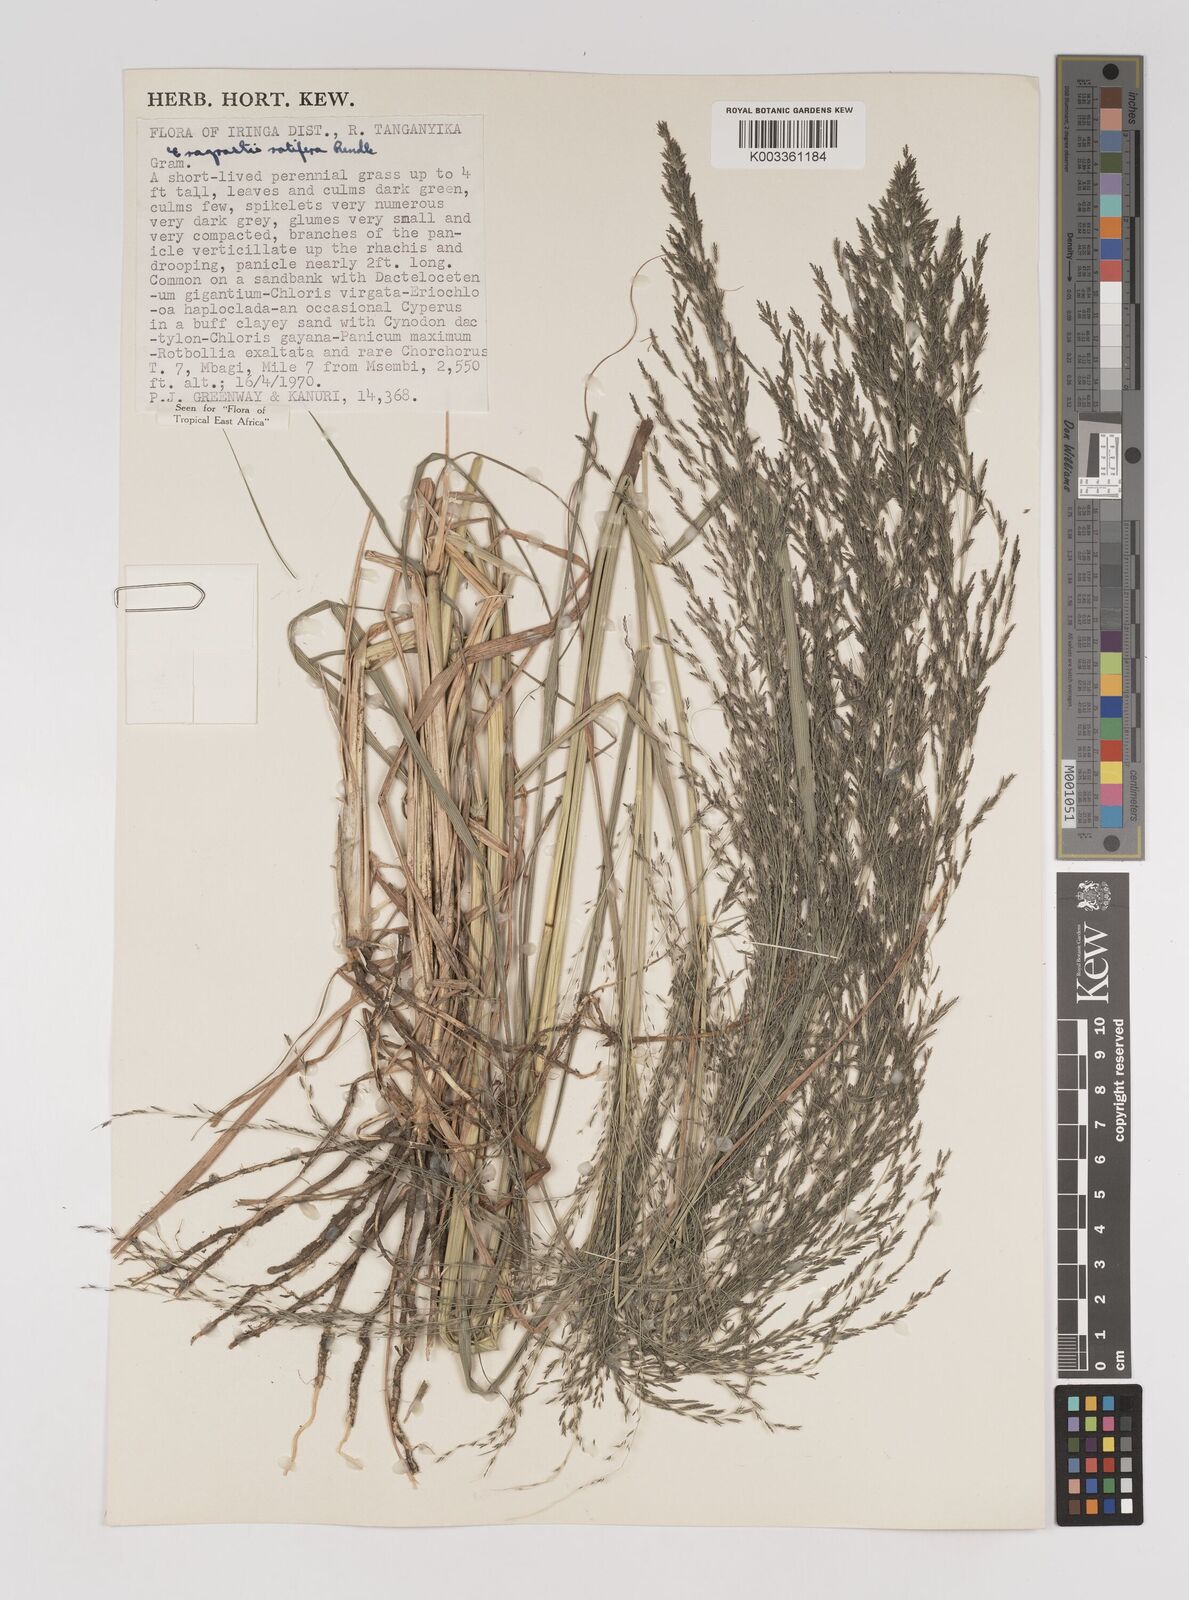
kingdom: Plantae
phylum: Tracheophyta
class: Liliopsida
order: Poales
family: Poaceae
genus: Eragrostis
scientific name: Eragrostis rotifer
